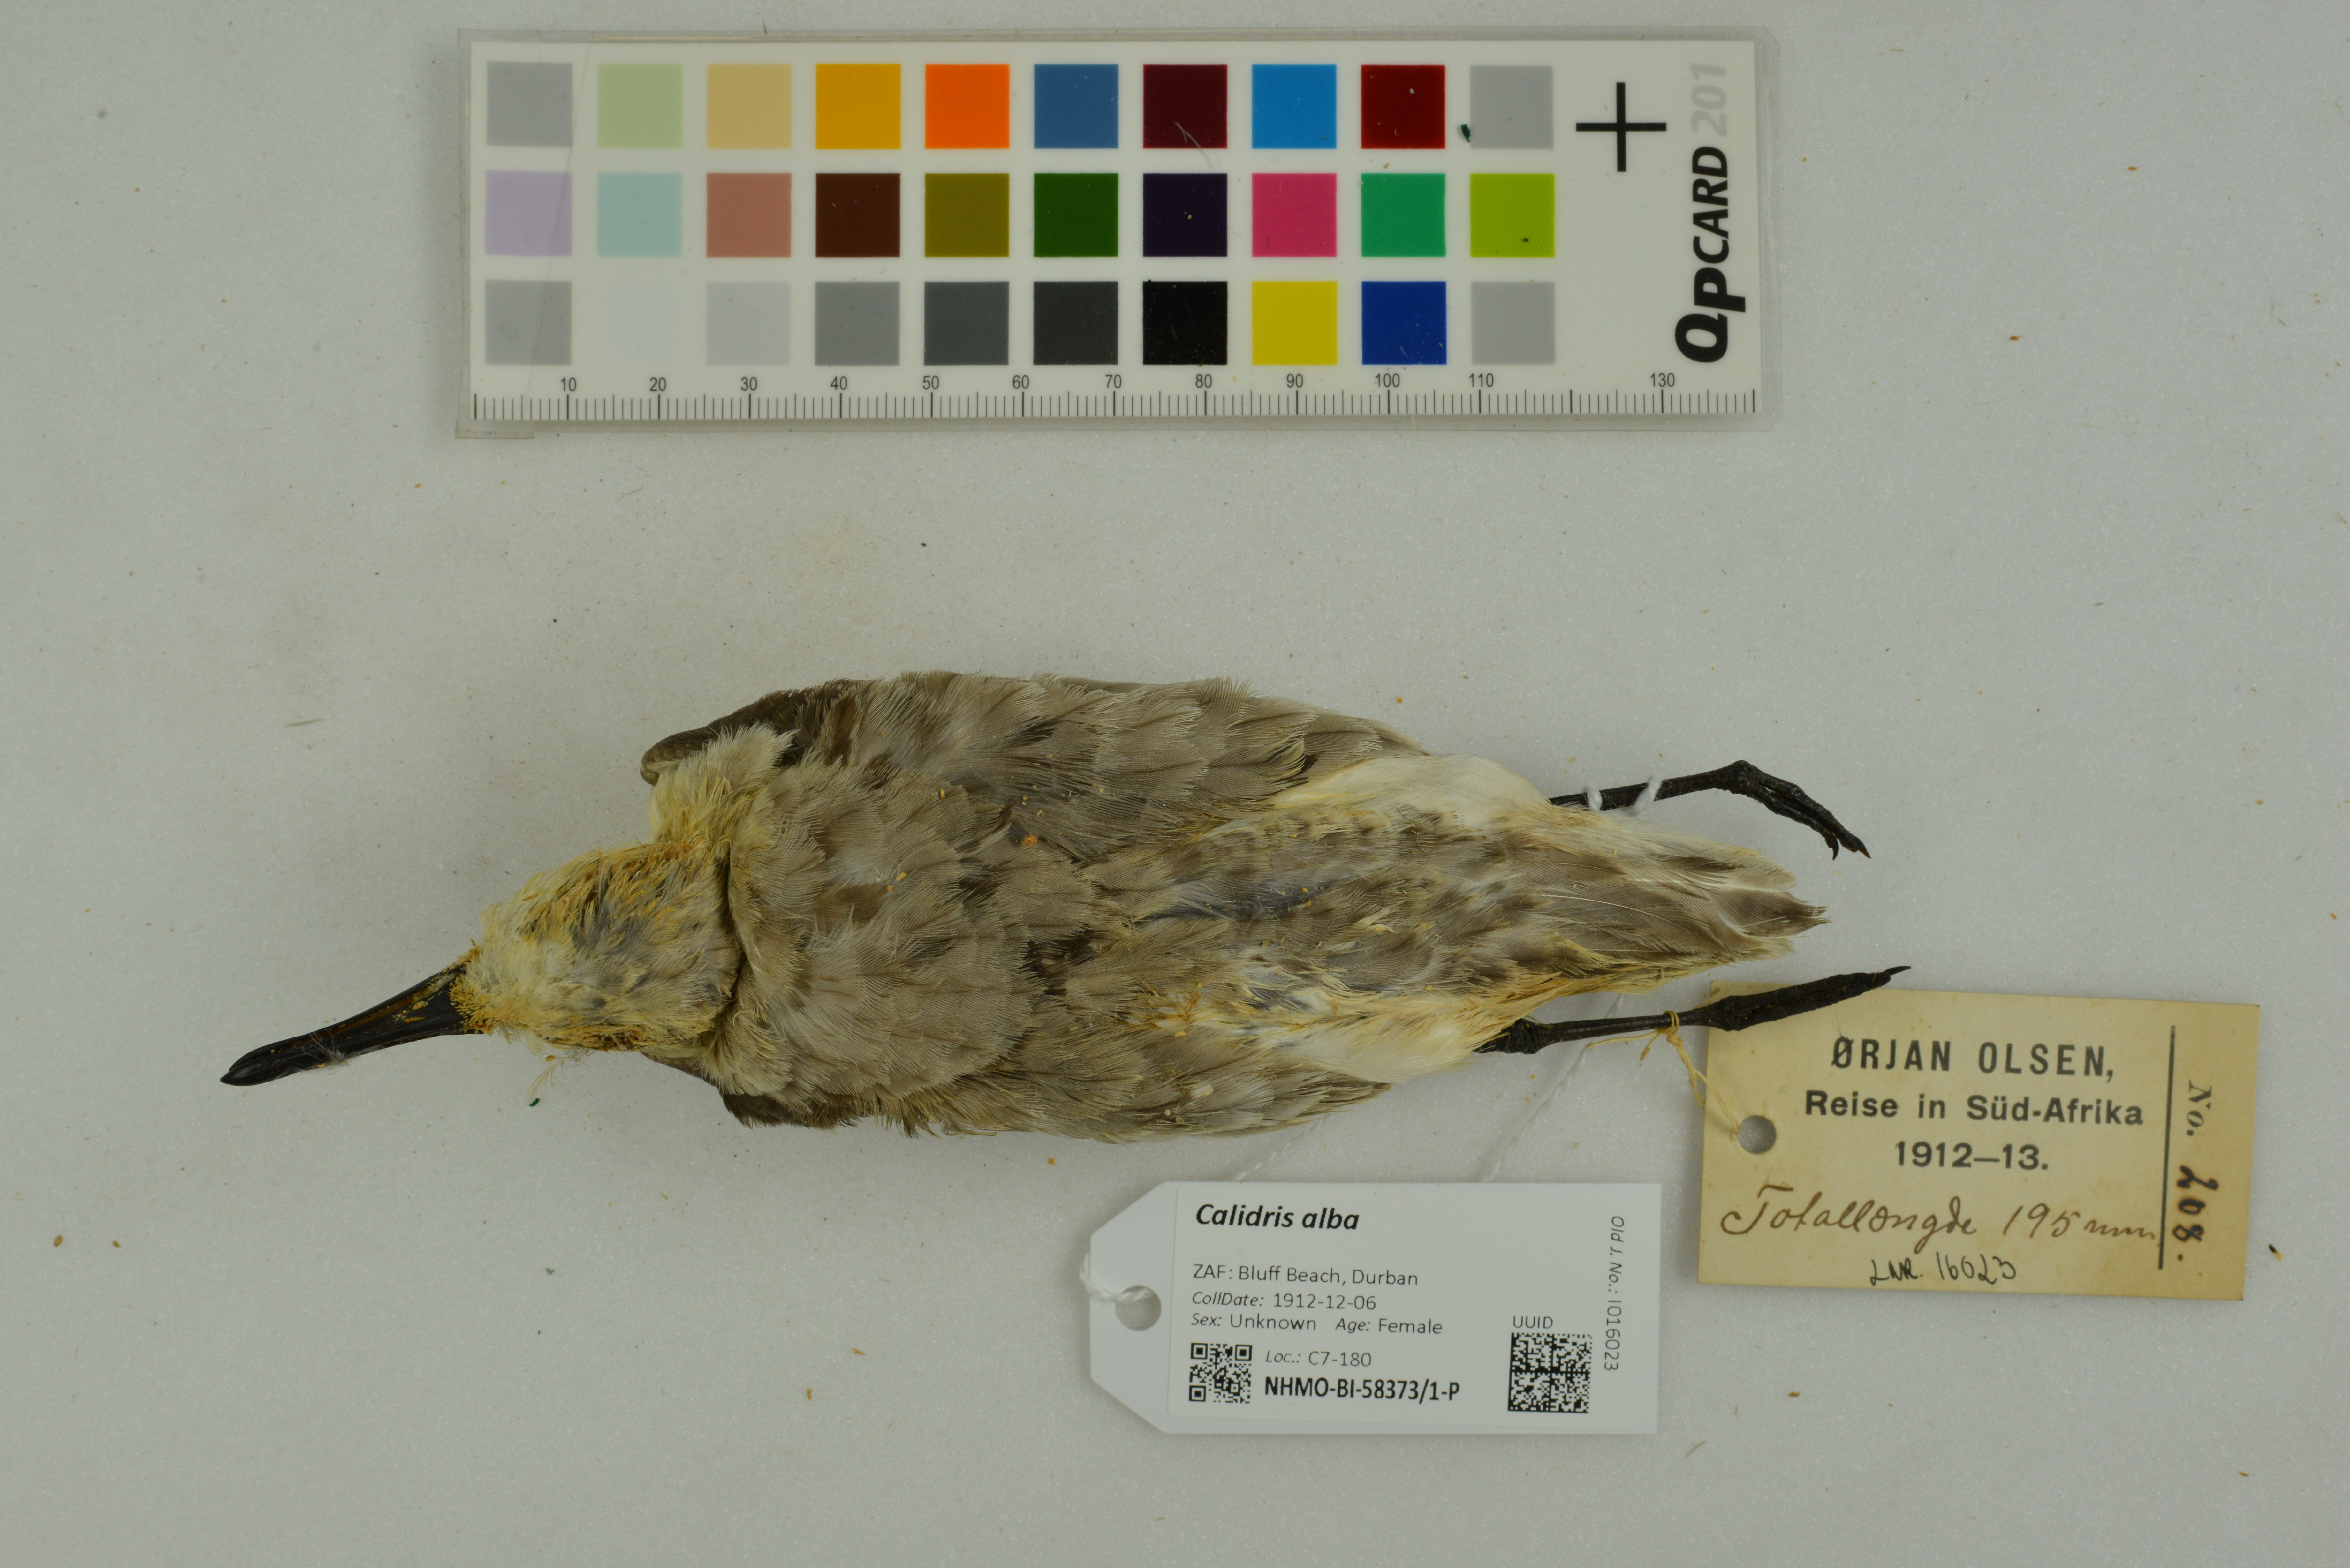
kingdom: Animalia
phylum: Chordata
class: Aves
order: Charadriiformes
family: Scolopacidae
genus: Calidris
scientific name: Calidris alba
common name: Sanderling
